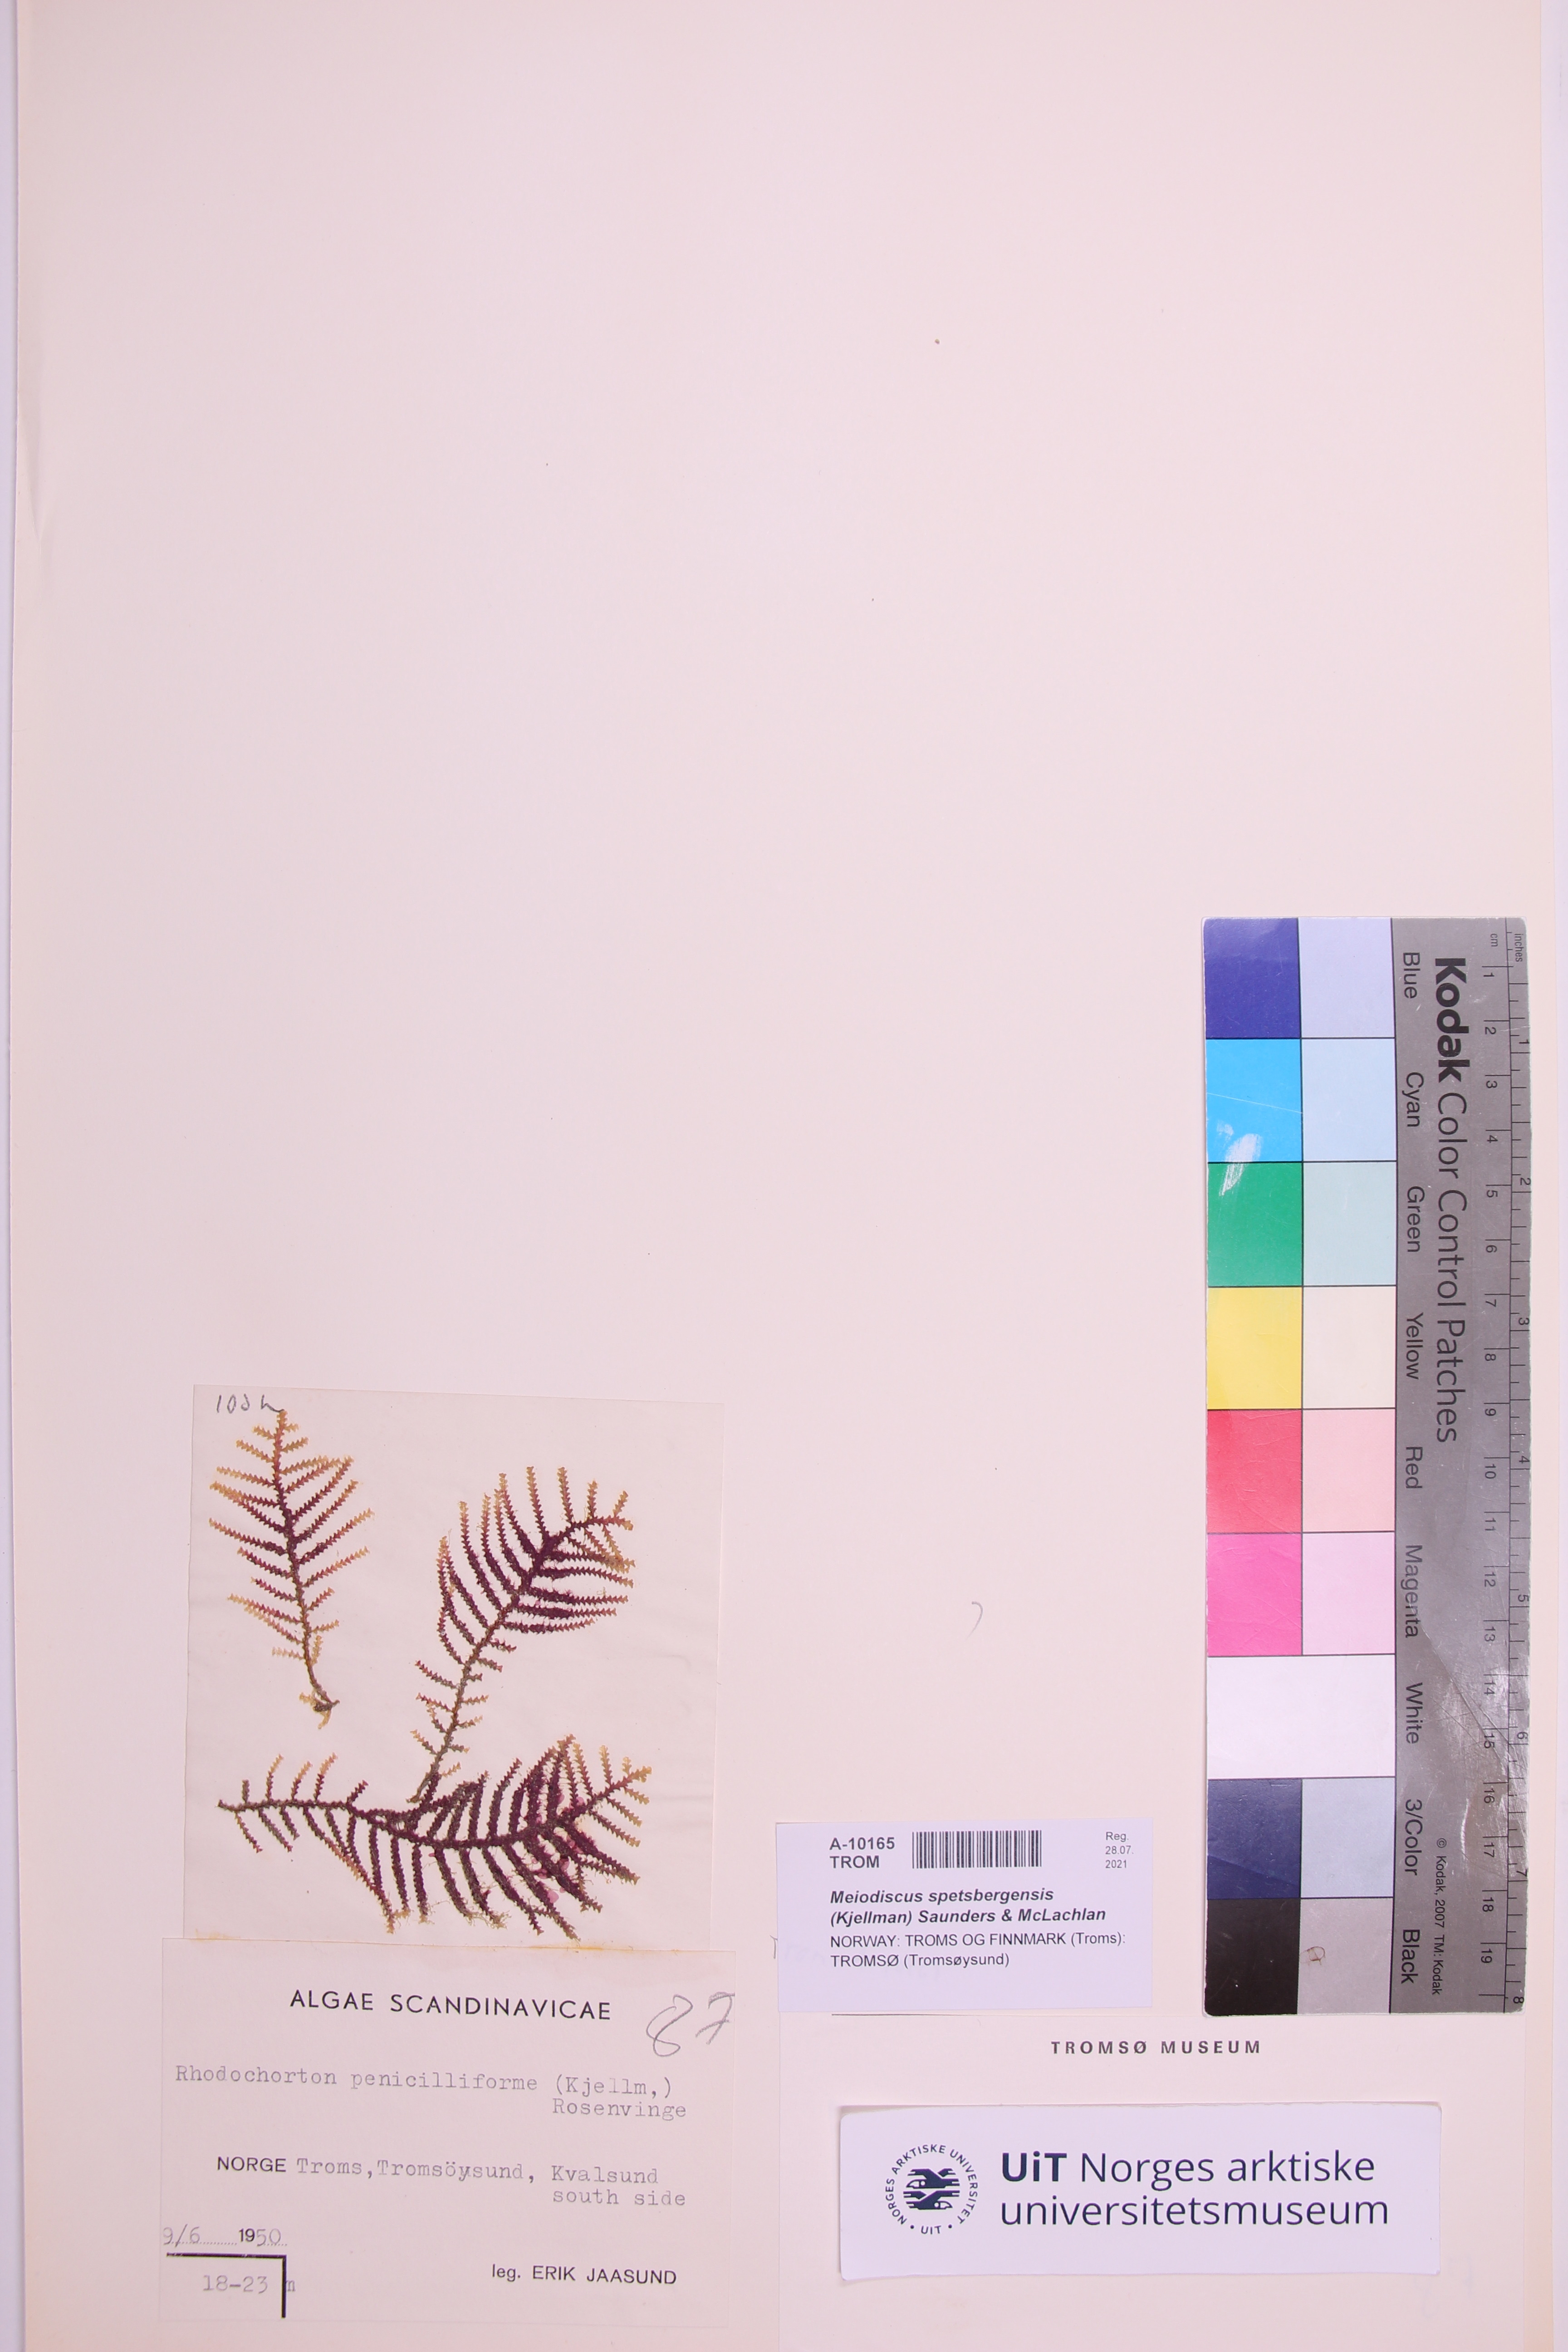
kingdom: Plantae
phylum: Rhodophyta
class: Florideophyceae
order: Palmariales
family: Meiodiscaceae
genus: Meiodiscus
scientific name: Meiodiscus spetsbergensis
